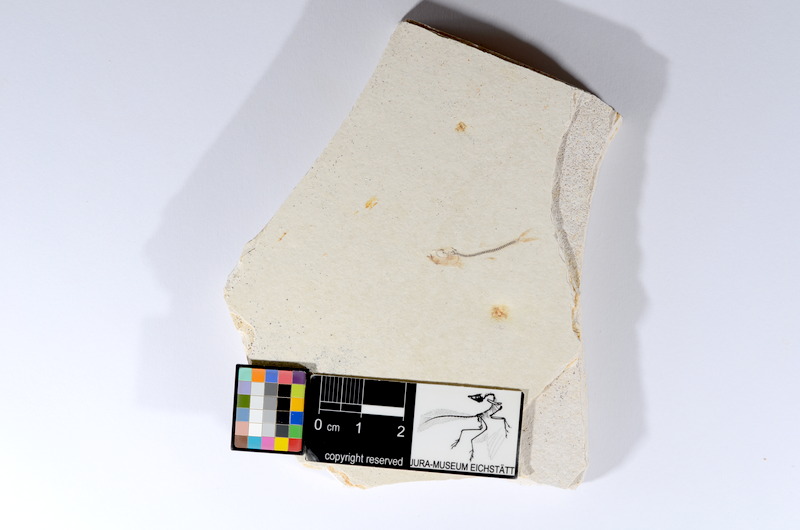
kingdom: Animalia
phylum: Chordata
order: Salmoniformes
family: Orthogonikleithridae
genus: Orthogonikleithrus
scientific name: Orthogonikleithrus hoelli
